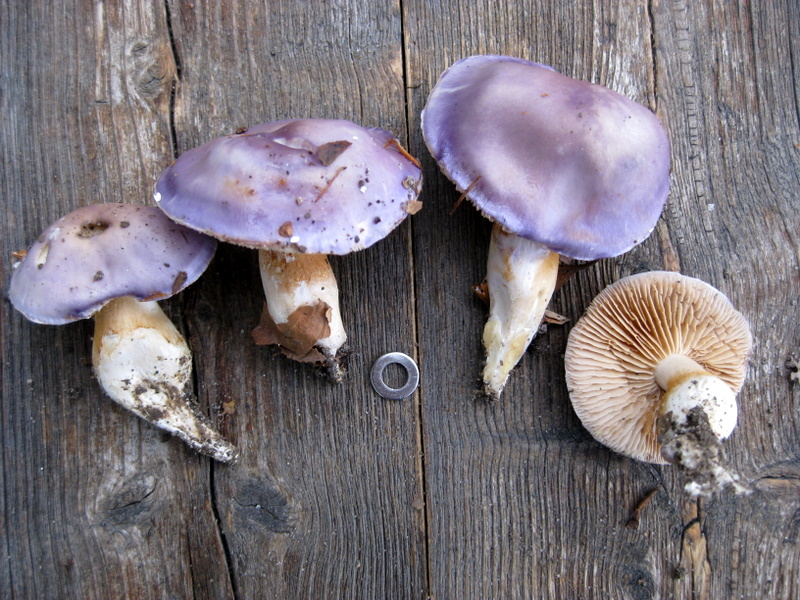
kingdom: Fungi
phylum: Basidiomycota
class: Agaricomycetes
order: Agaricales
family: Cortinariaceae
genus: Thaxterogaster
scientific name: Thaxterogaster croceocoeruleus
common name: blågullig slørhat
